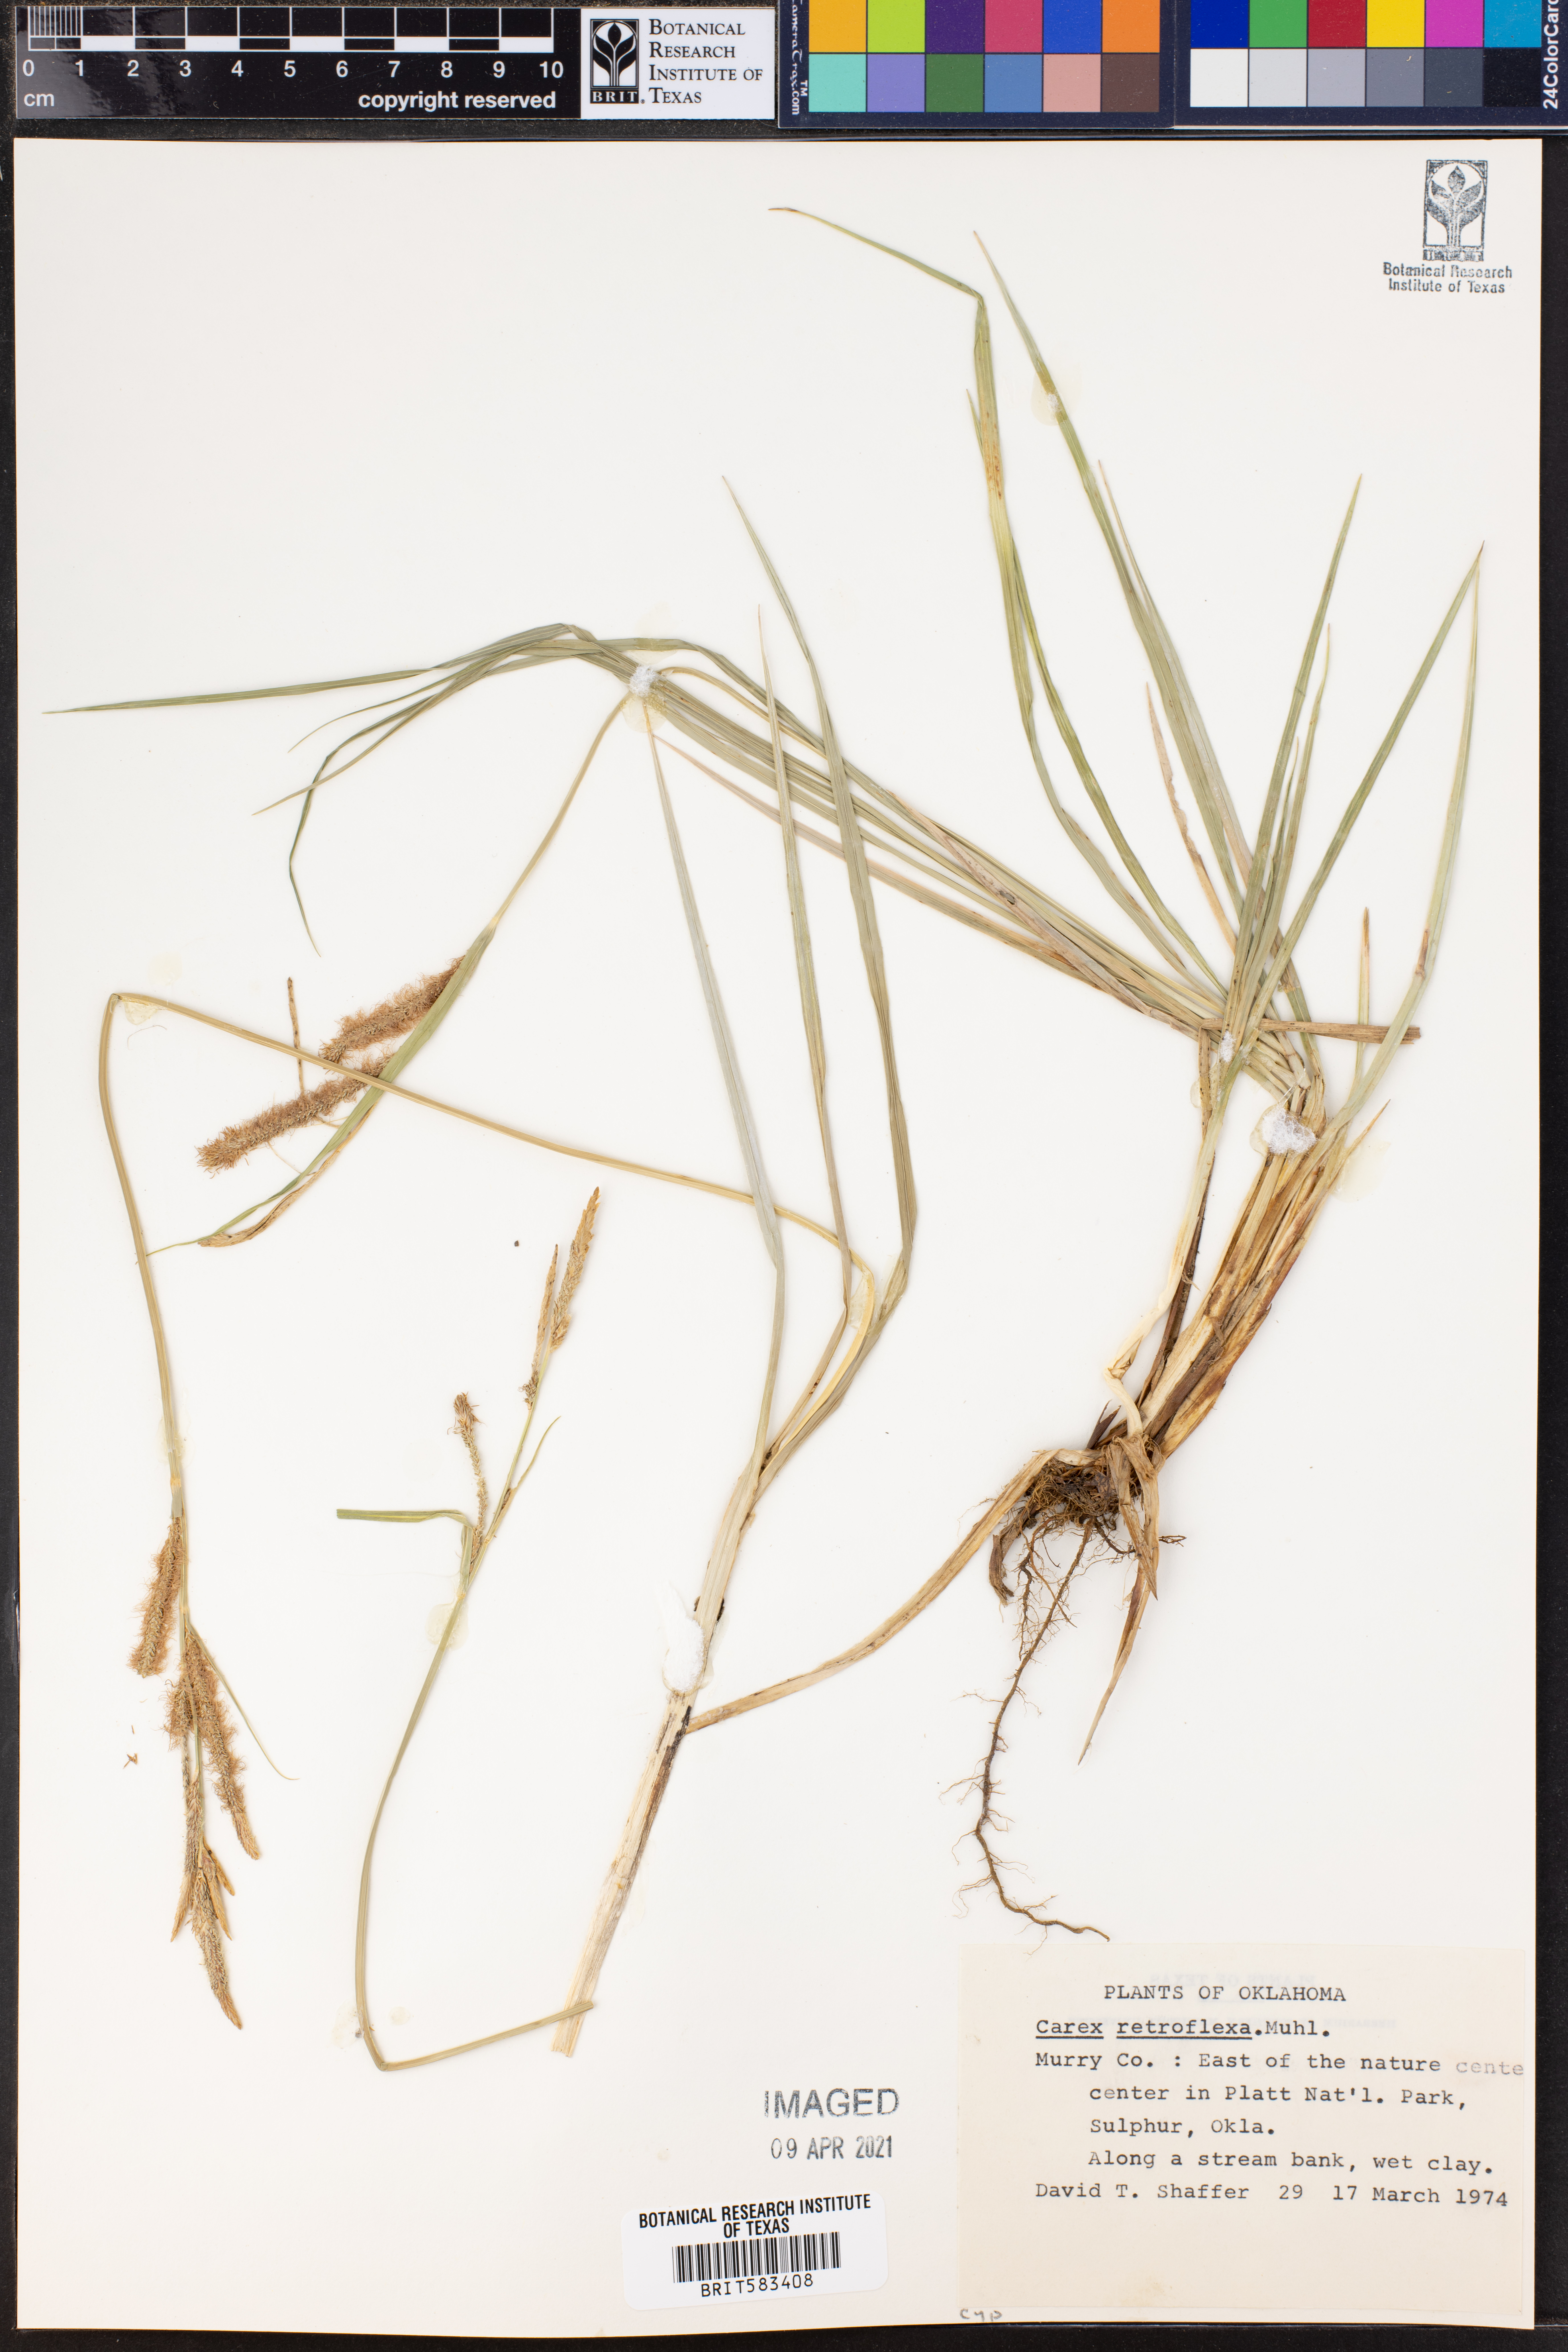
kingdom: Plantae
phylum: Tracheophyta
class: Liliopsida
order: Poales
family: Cyperaceae
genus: Carex
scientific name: Carex retroflexa
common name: Reflexed sedge
